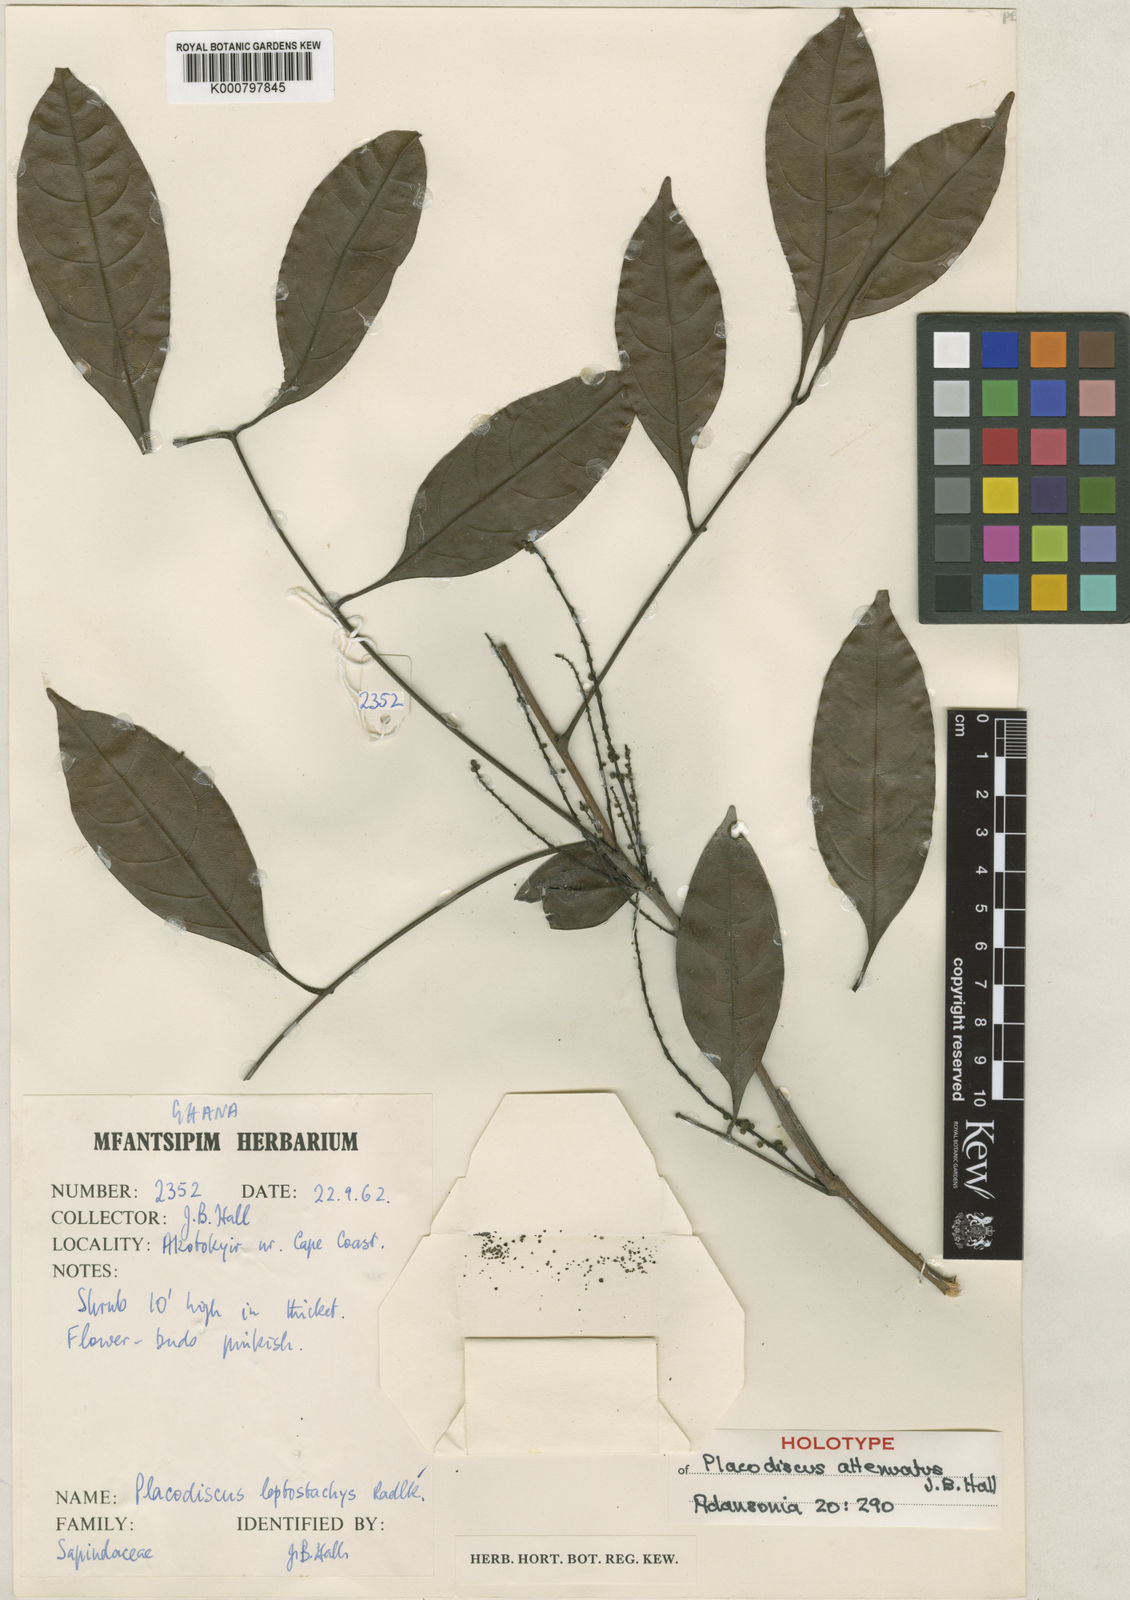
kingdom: Plantae
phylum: Tracheophyta
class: Magnoliopsida
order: Sapindales
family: Sapindaceae
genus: Placodiscus
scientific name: Placodiscus attenuatus
